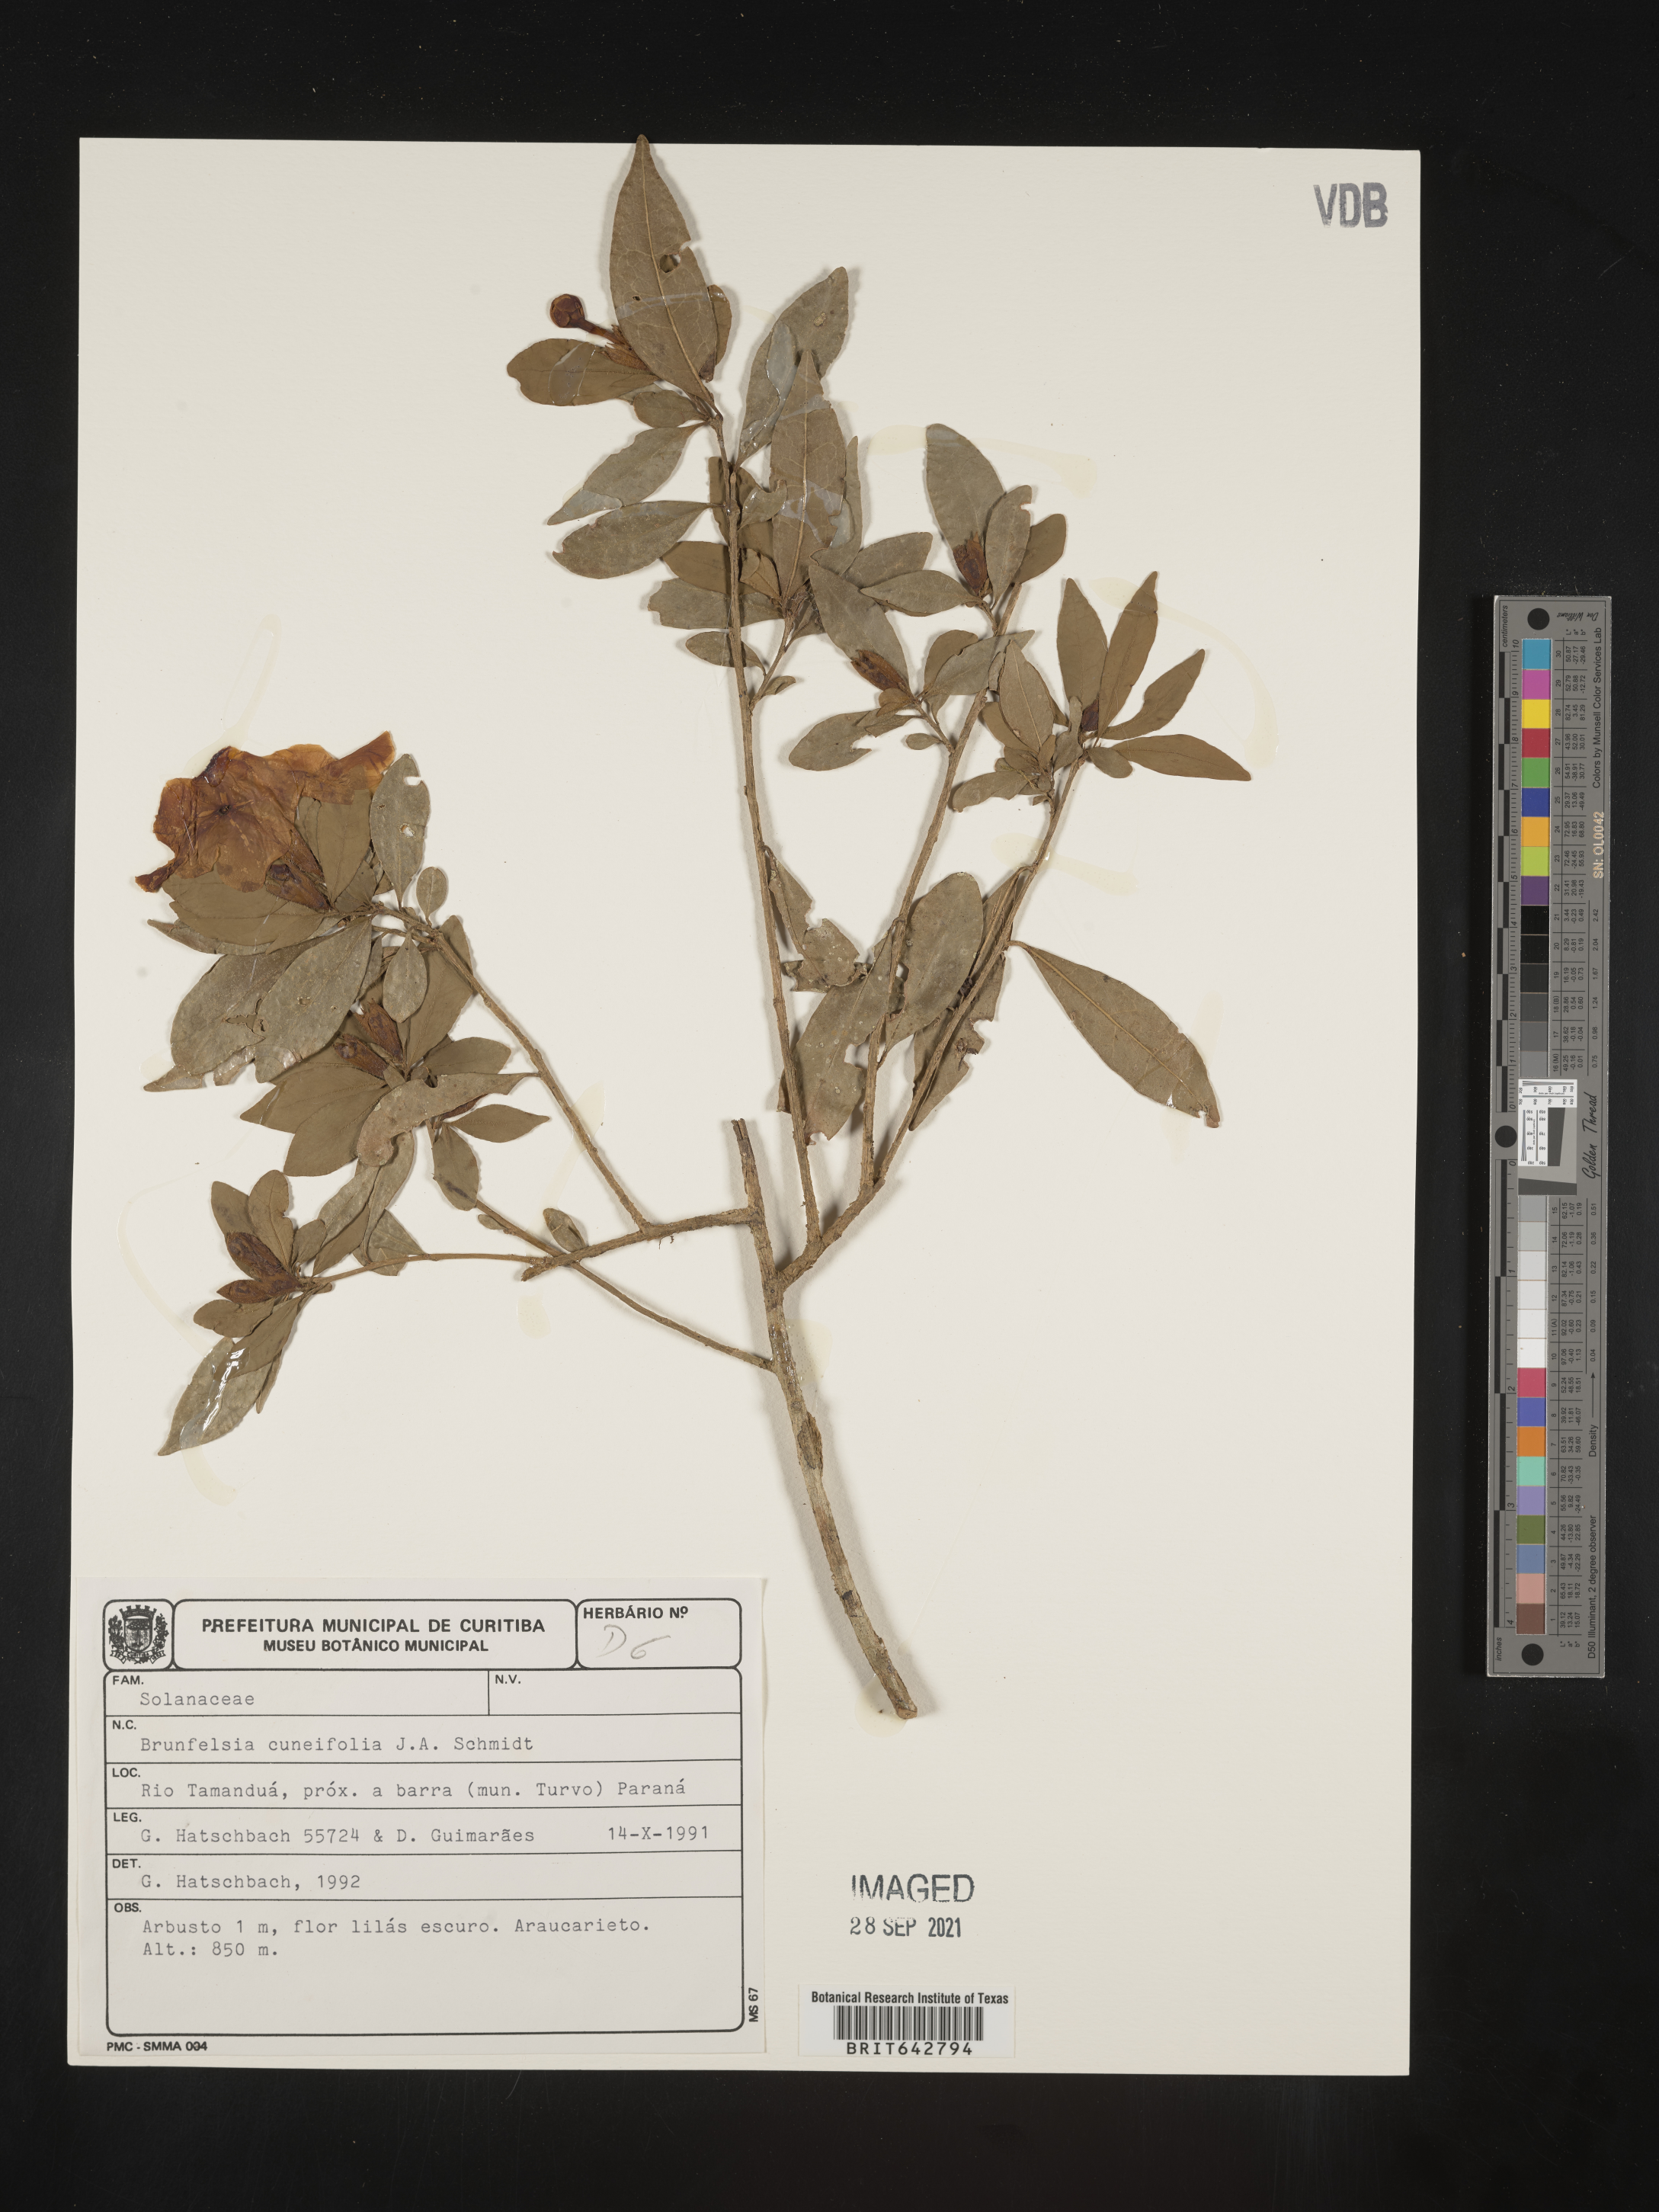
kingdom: Plantae
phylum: Tracheophyta
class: Magnoliopsida
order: Solanales
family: Solanaceae
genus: Brunfelsia
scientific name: Brunfelsia
